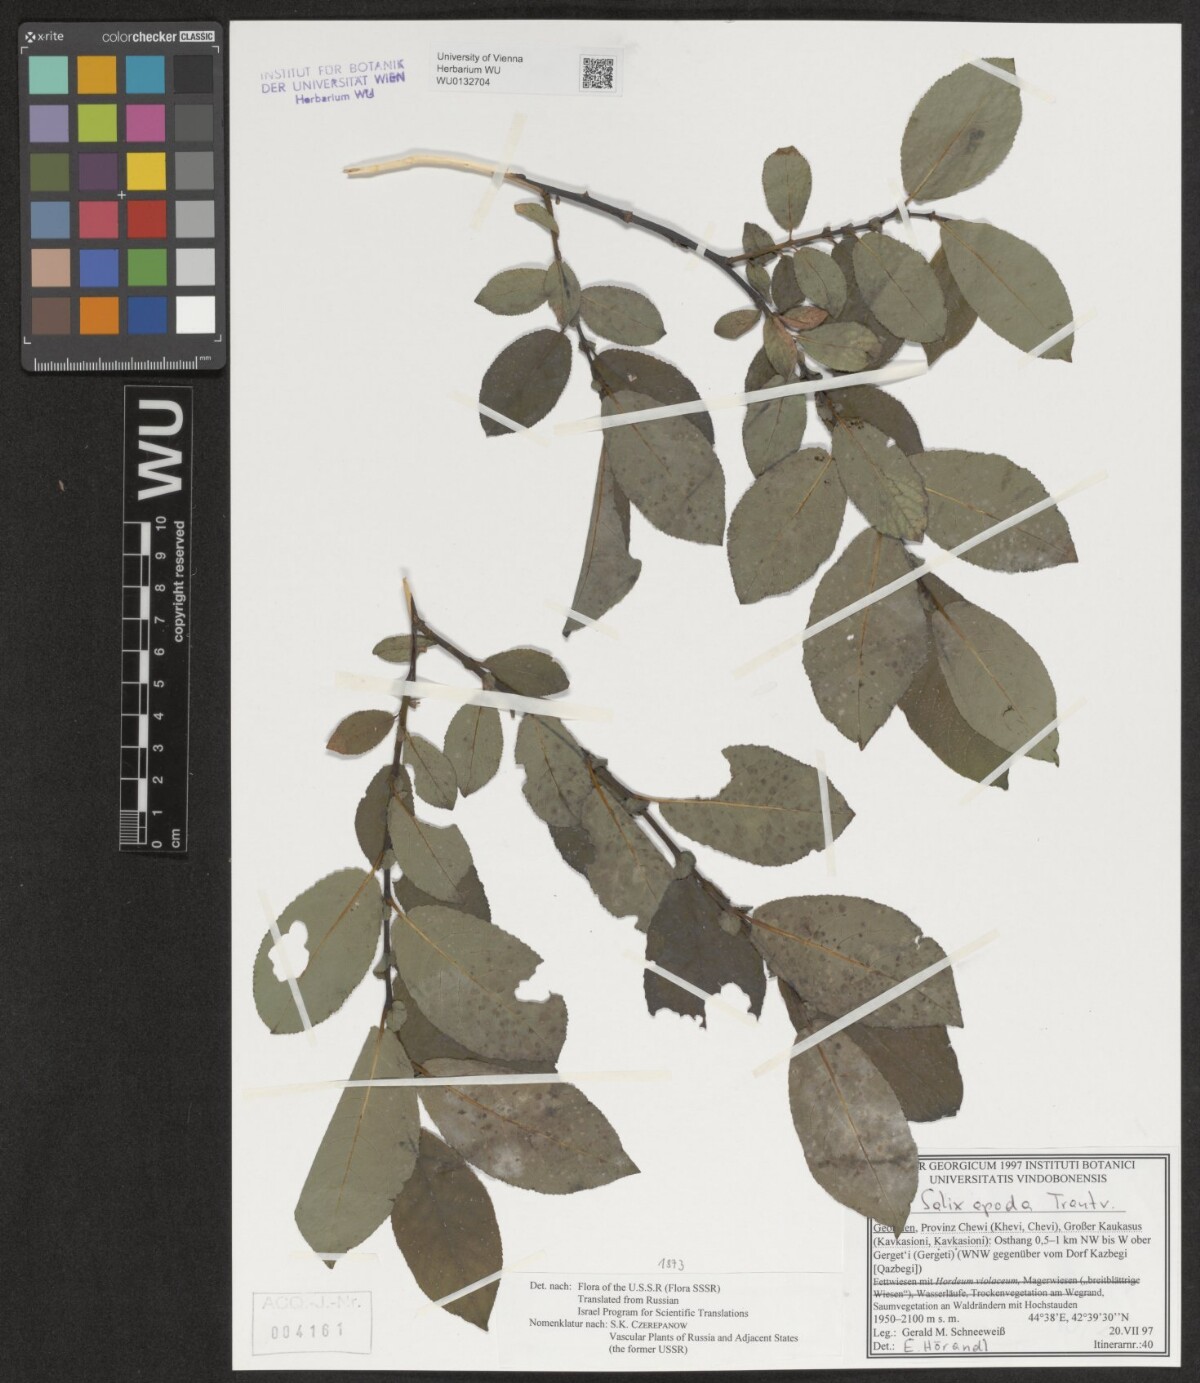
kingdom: Plantae
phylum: Tracheophyta
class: Magnoliopsida
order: Malpighiales
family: Salicaceae
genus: Salix
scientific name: Salix apoda
